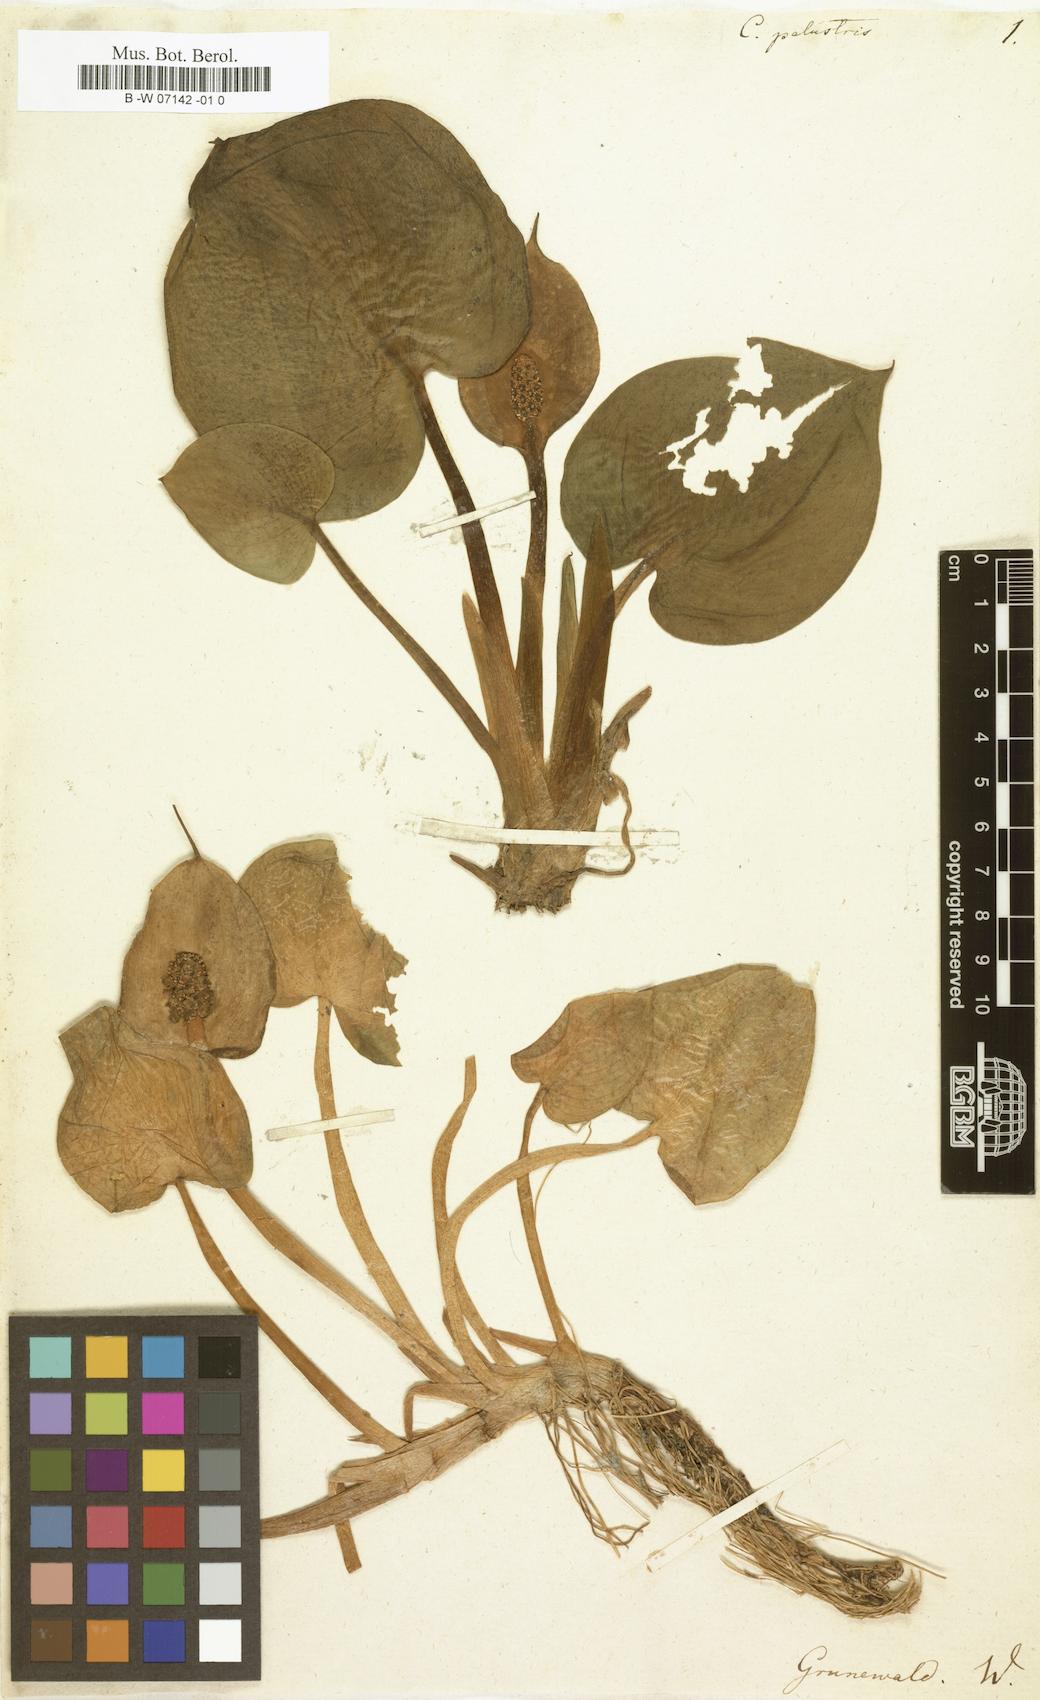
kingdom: Plantae
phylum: Tracheophyta
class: Liliopsida
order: Alismatales
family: Araceae
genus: Calla
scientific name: Calla palustris
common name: Bog arum
